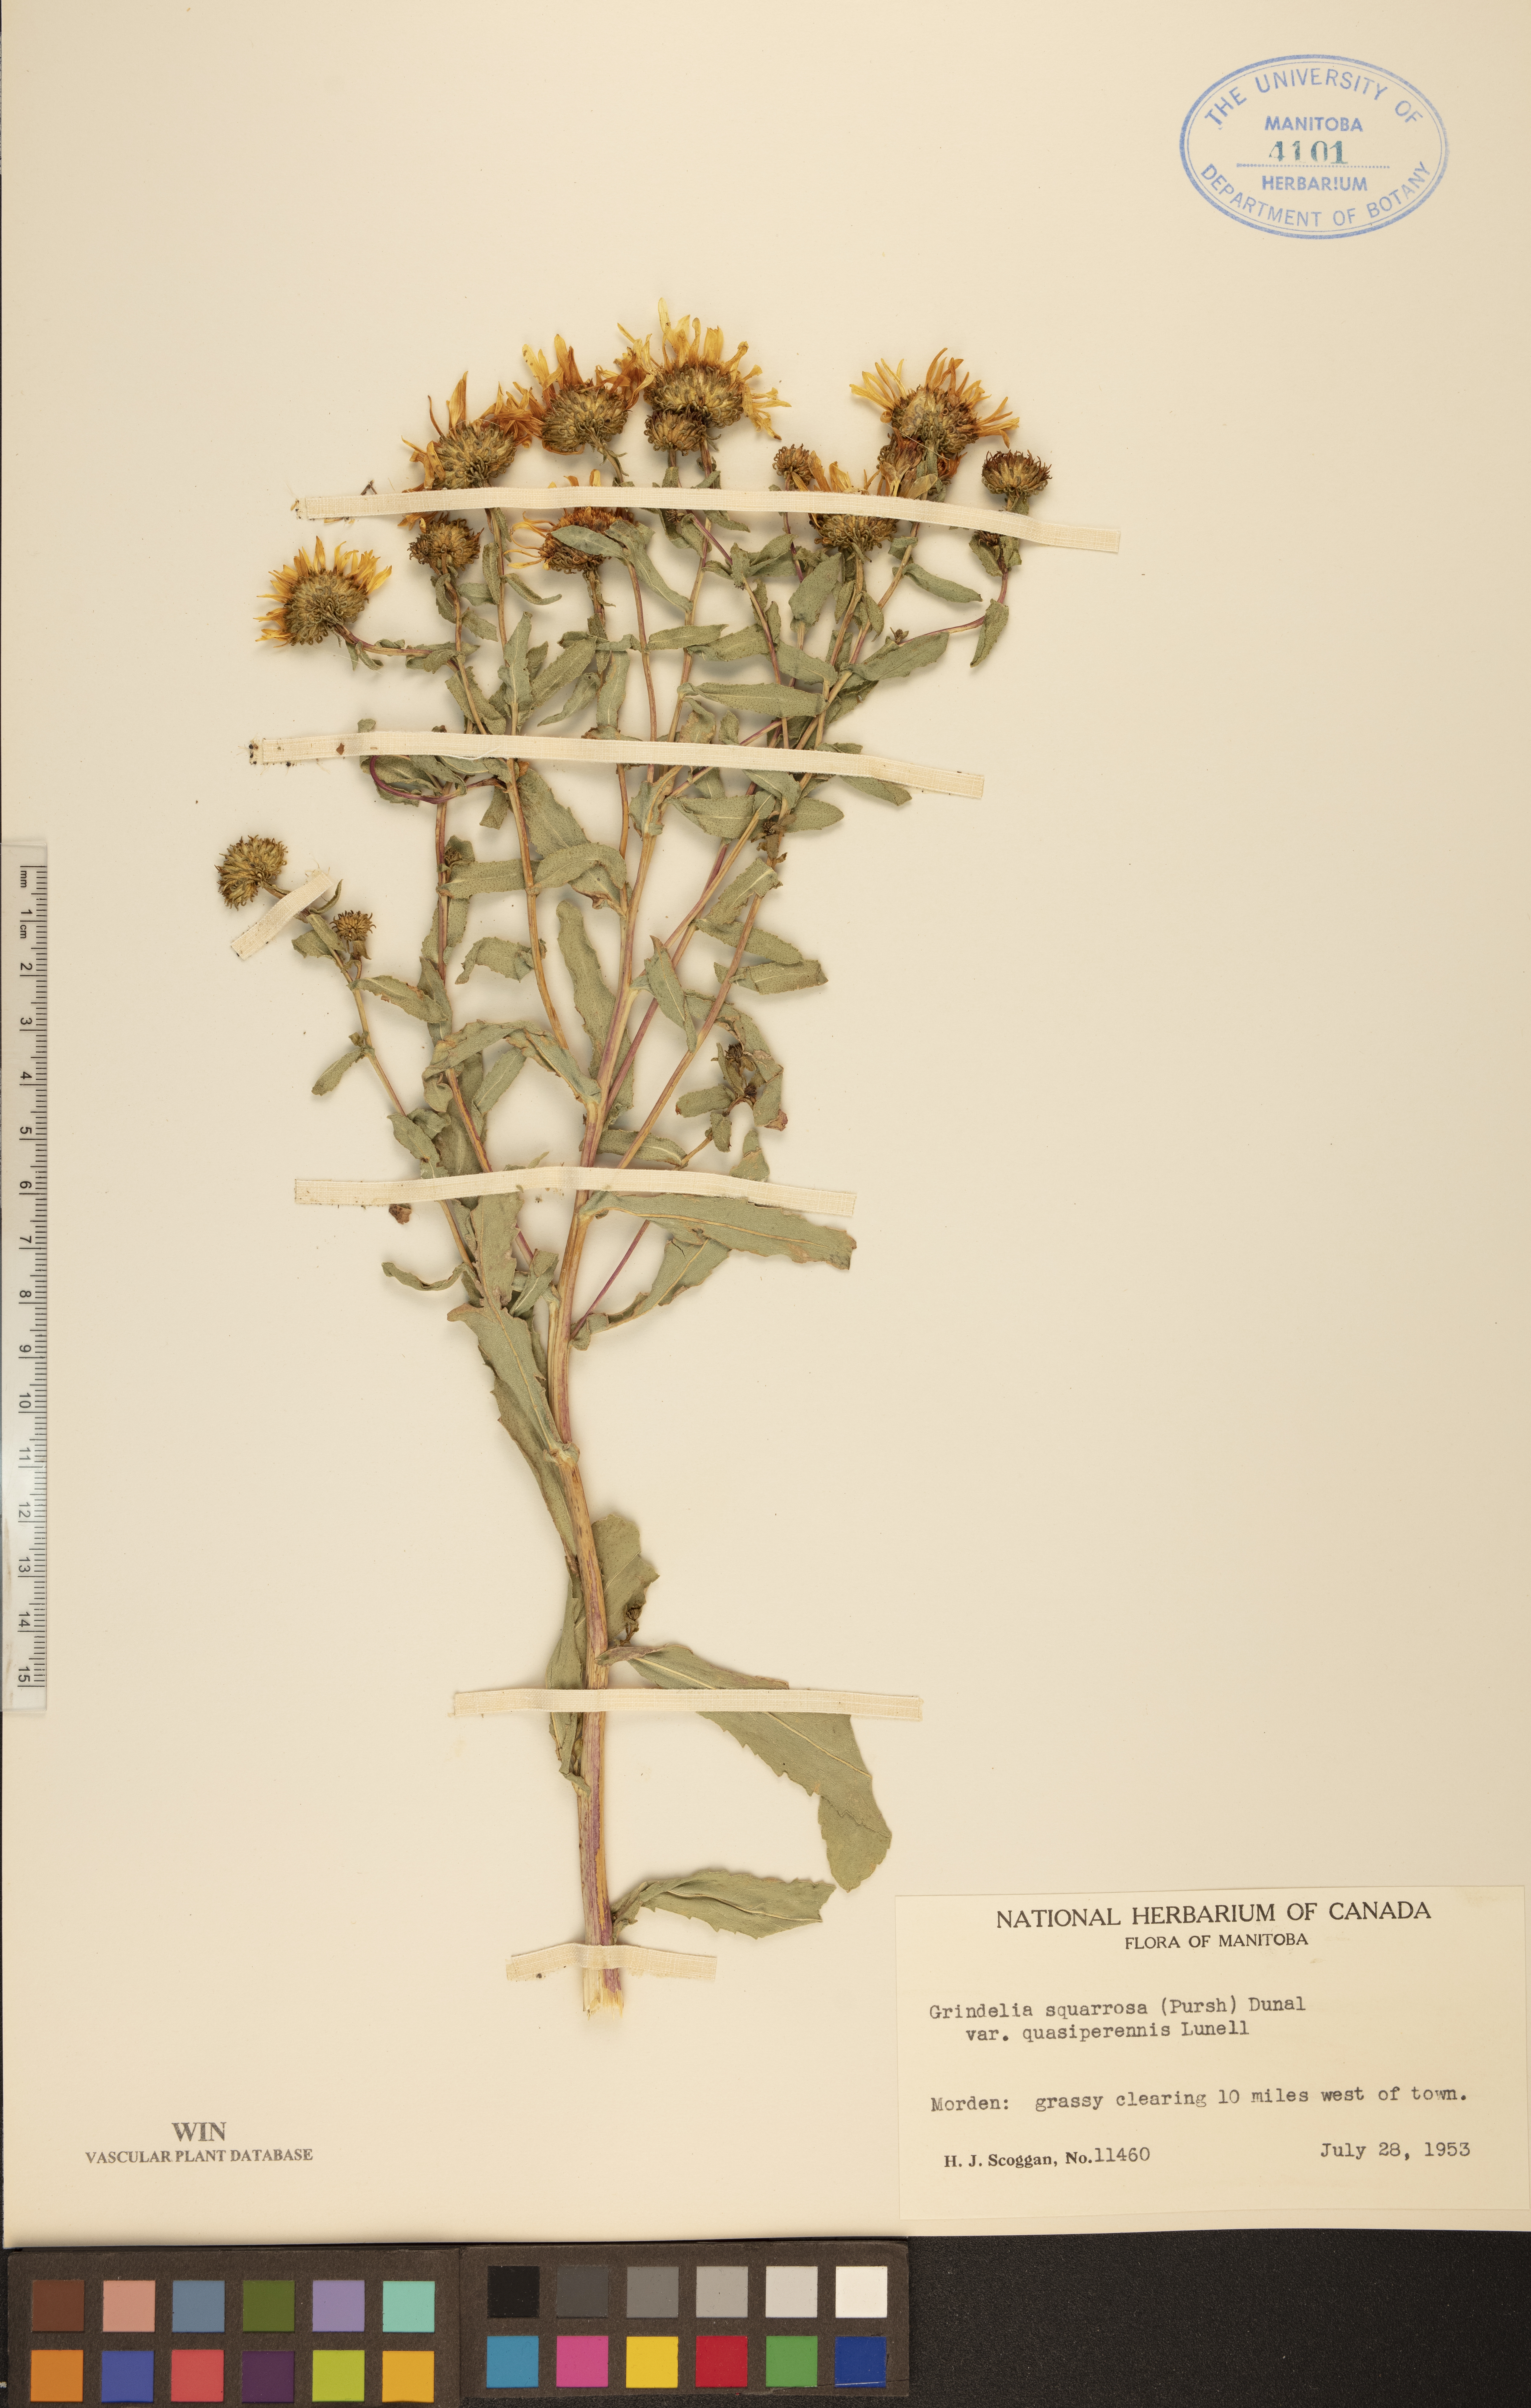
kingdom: Plantae
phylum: Tracheophyta
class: Magnoliopsida
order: Asterales
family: Asteraceae
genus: Grindelia
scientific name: Grindelia hirsutula
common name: Hairy gumweed
